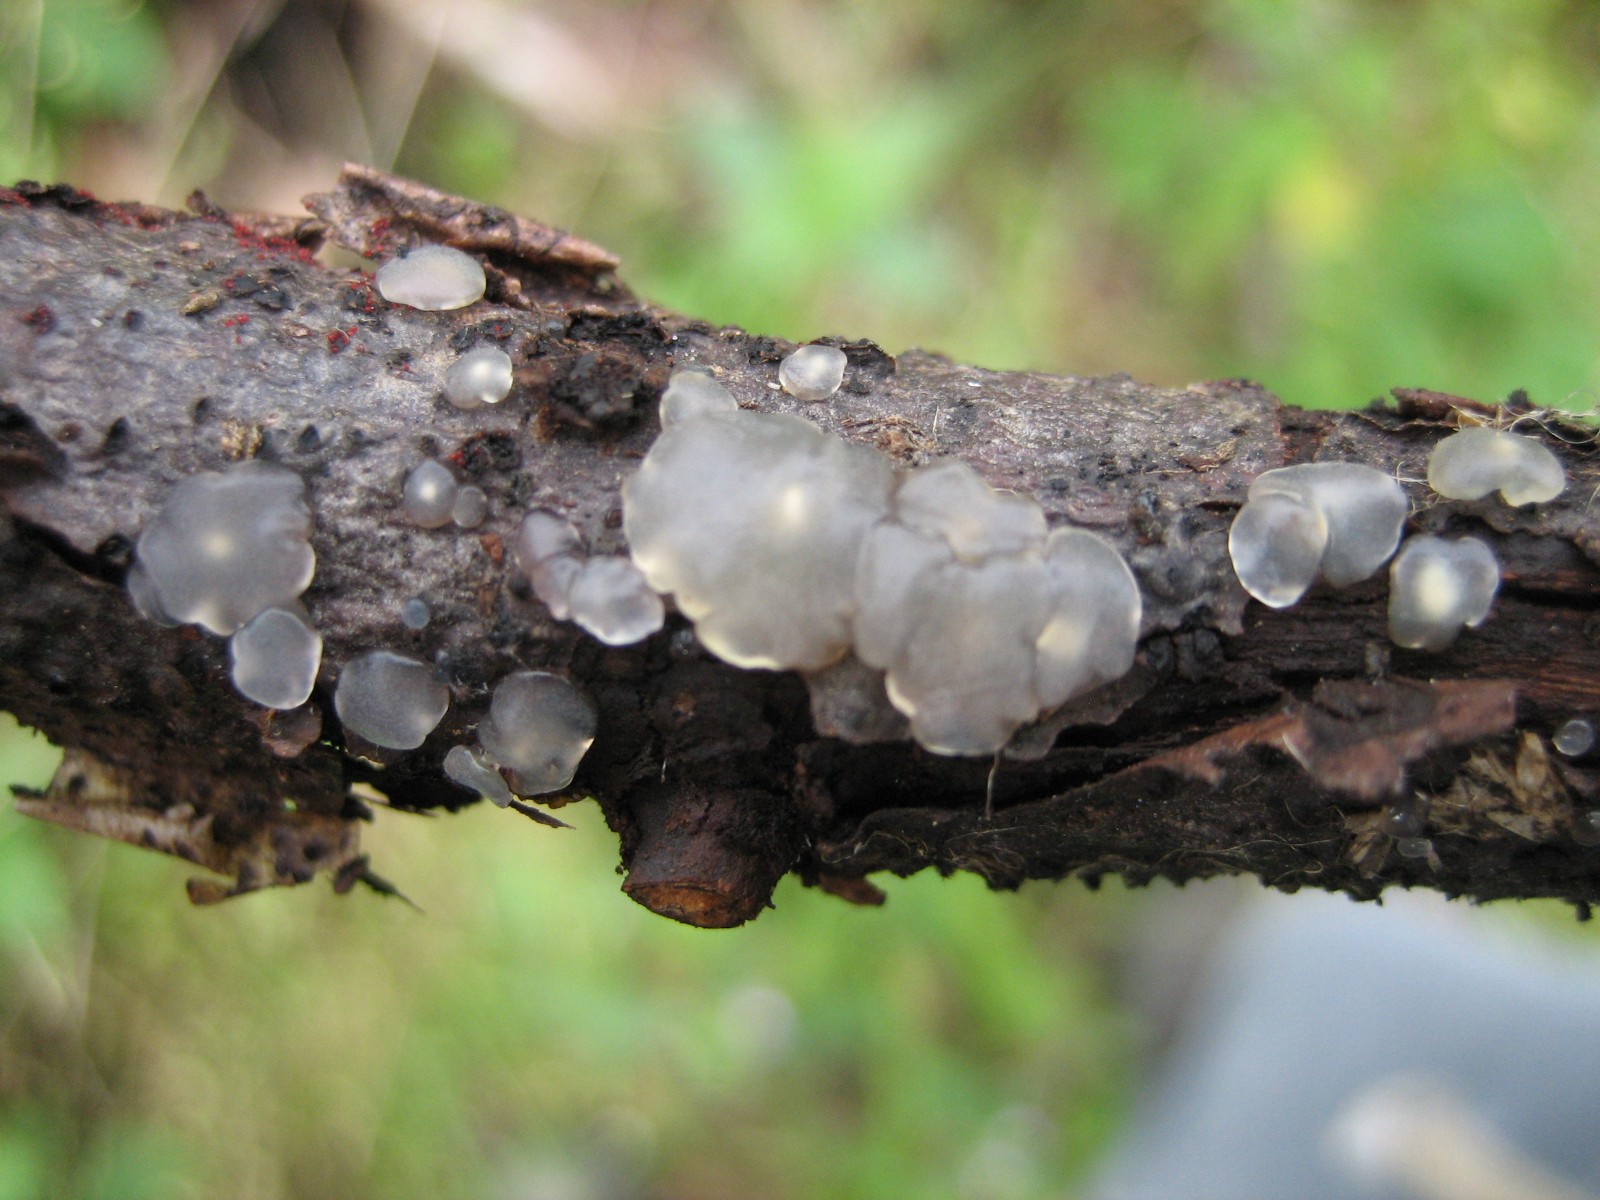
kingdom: Fungi
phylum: Basidiomycota
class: Agaricomycetes
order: Auriculariales
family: Hyaloriaceae
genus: Myxarium
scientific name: Myxarium nucleatum
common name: klar bævretop
